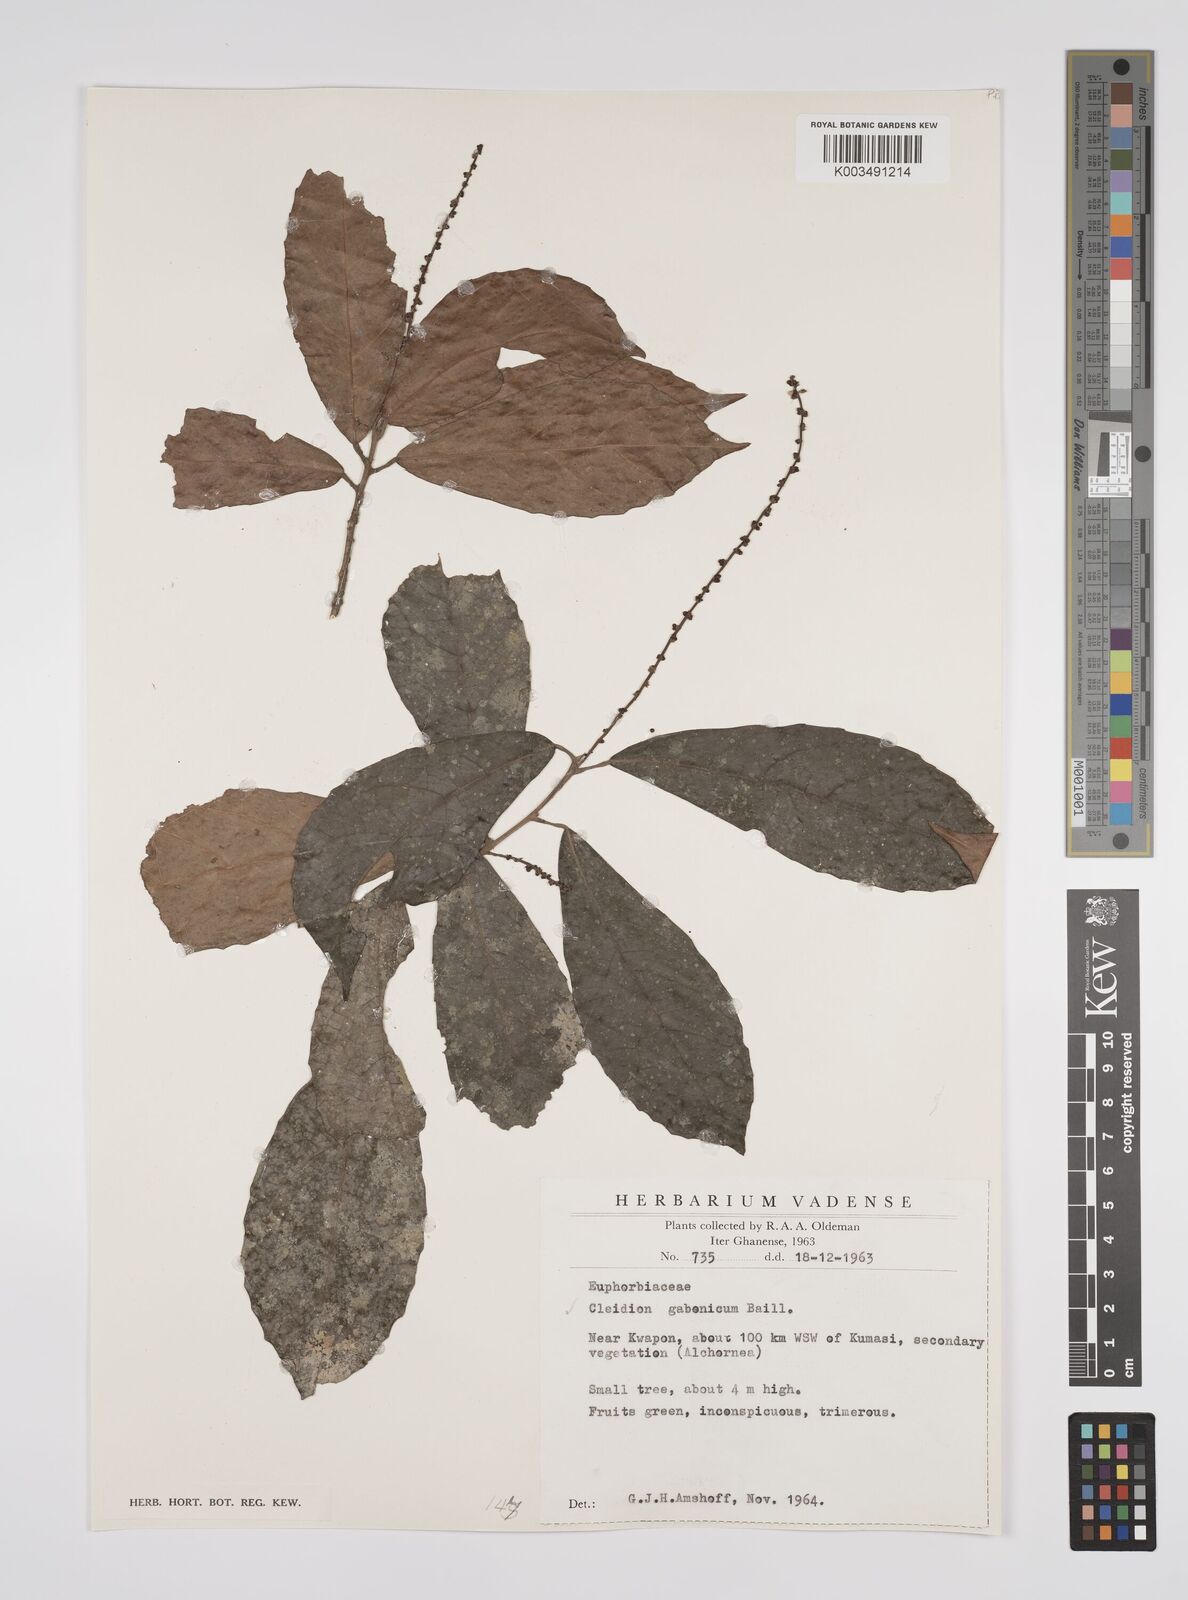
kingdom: Plantae
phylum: Tracheophyta
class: Magnoliopsida
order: Malpighiales
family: Euphorbiaceae
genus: Cleidion
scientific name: Cleidion gabonicum
